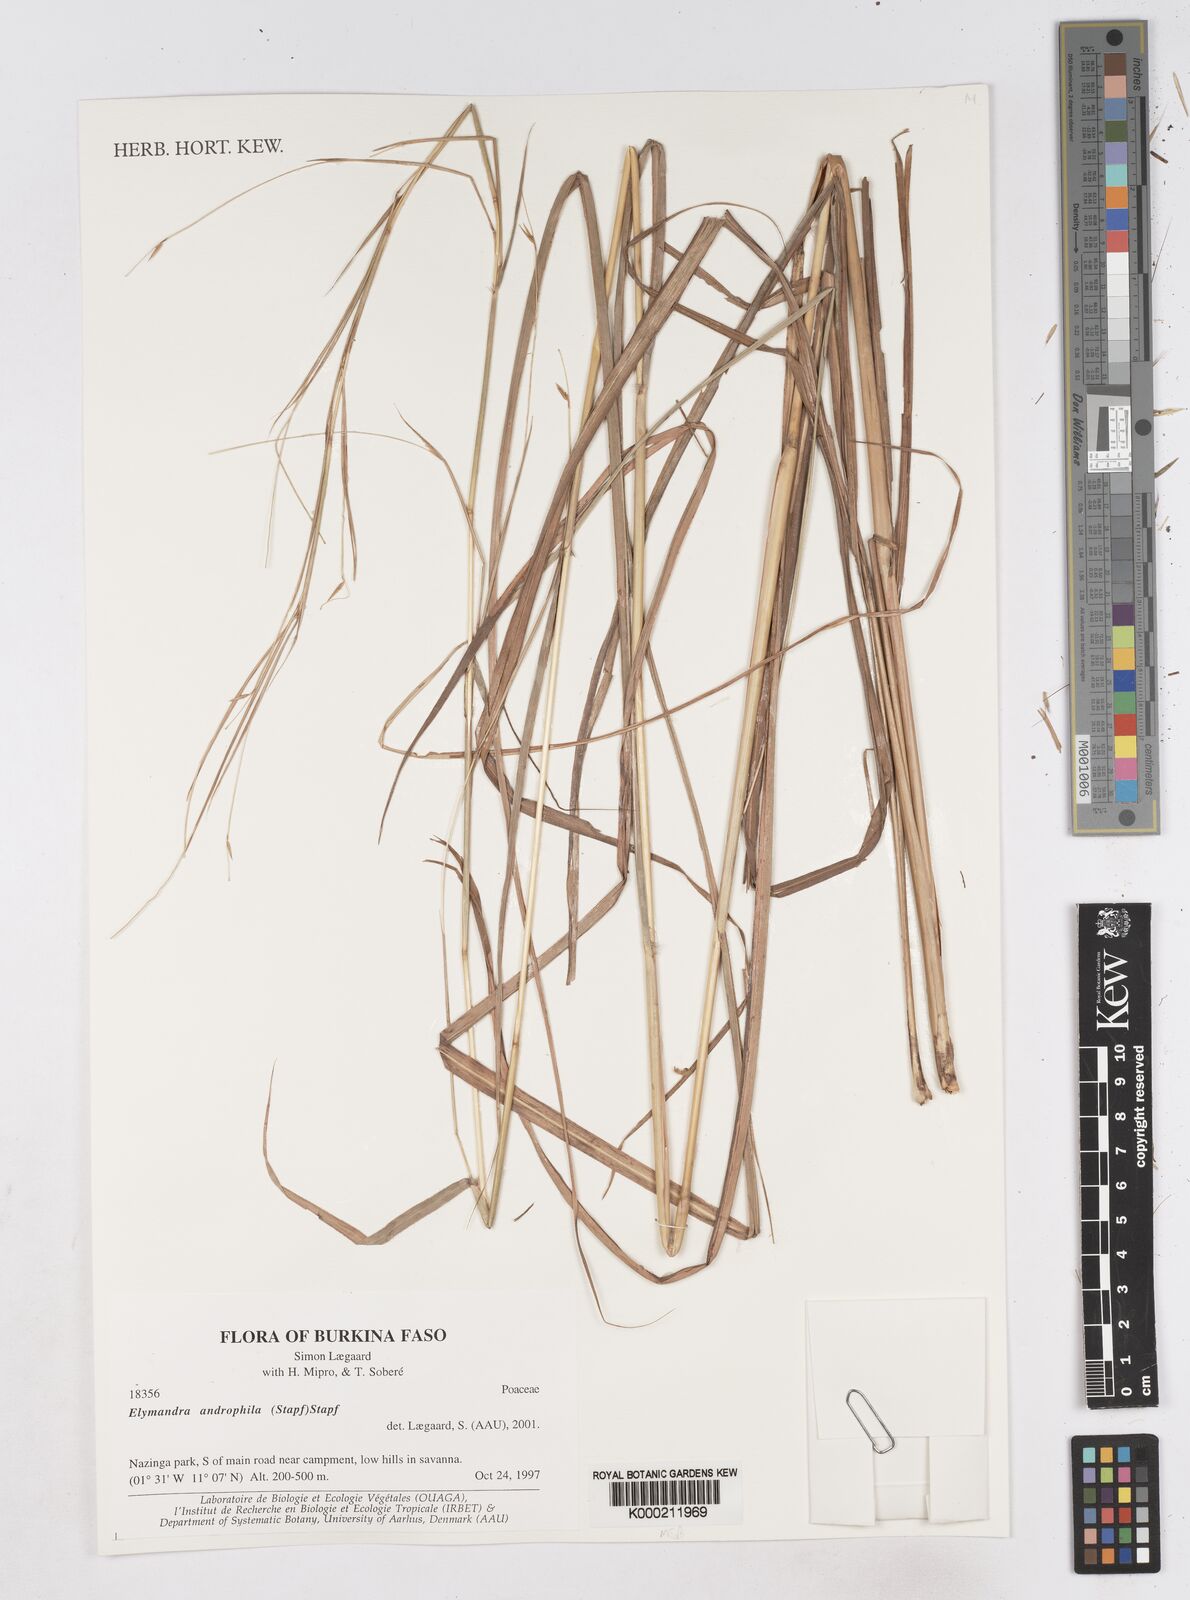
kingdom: Plantae
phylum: Tracheophyta
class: Liliopsida
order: Poales
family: Poaceae
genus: Elymandra
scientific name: Elymandra androphila
